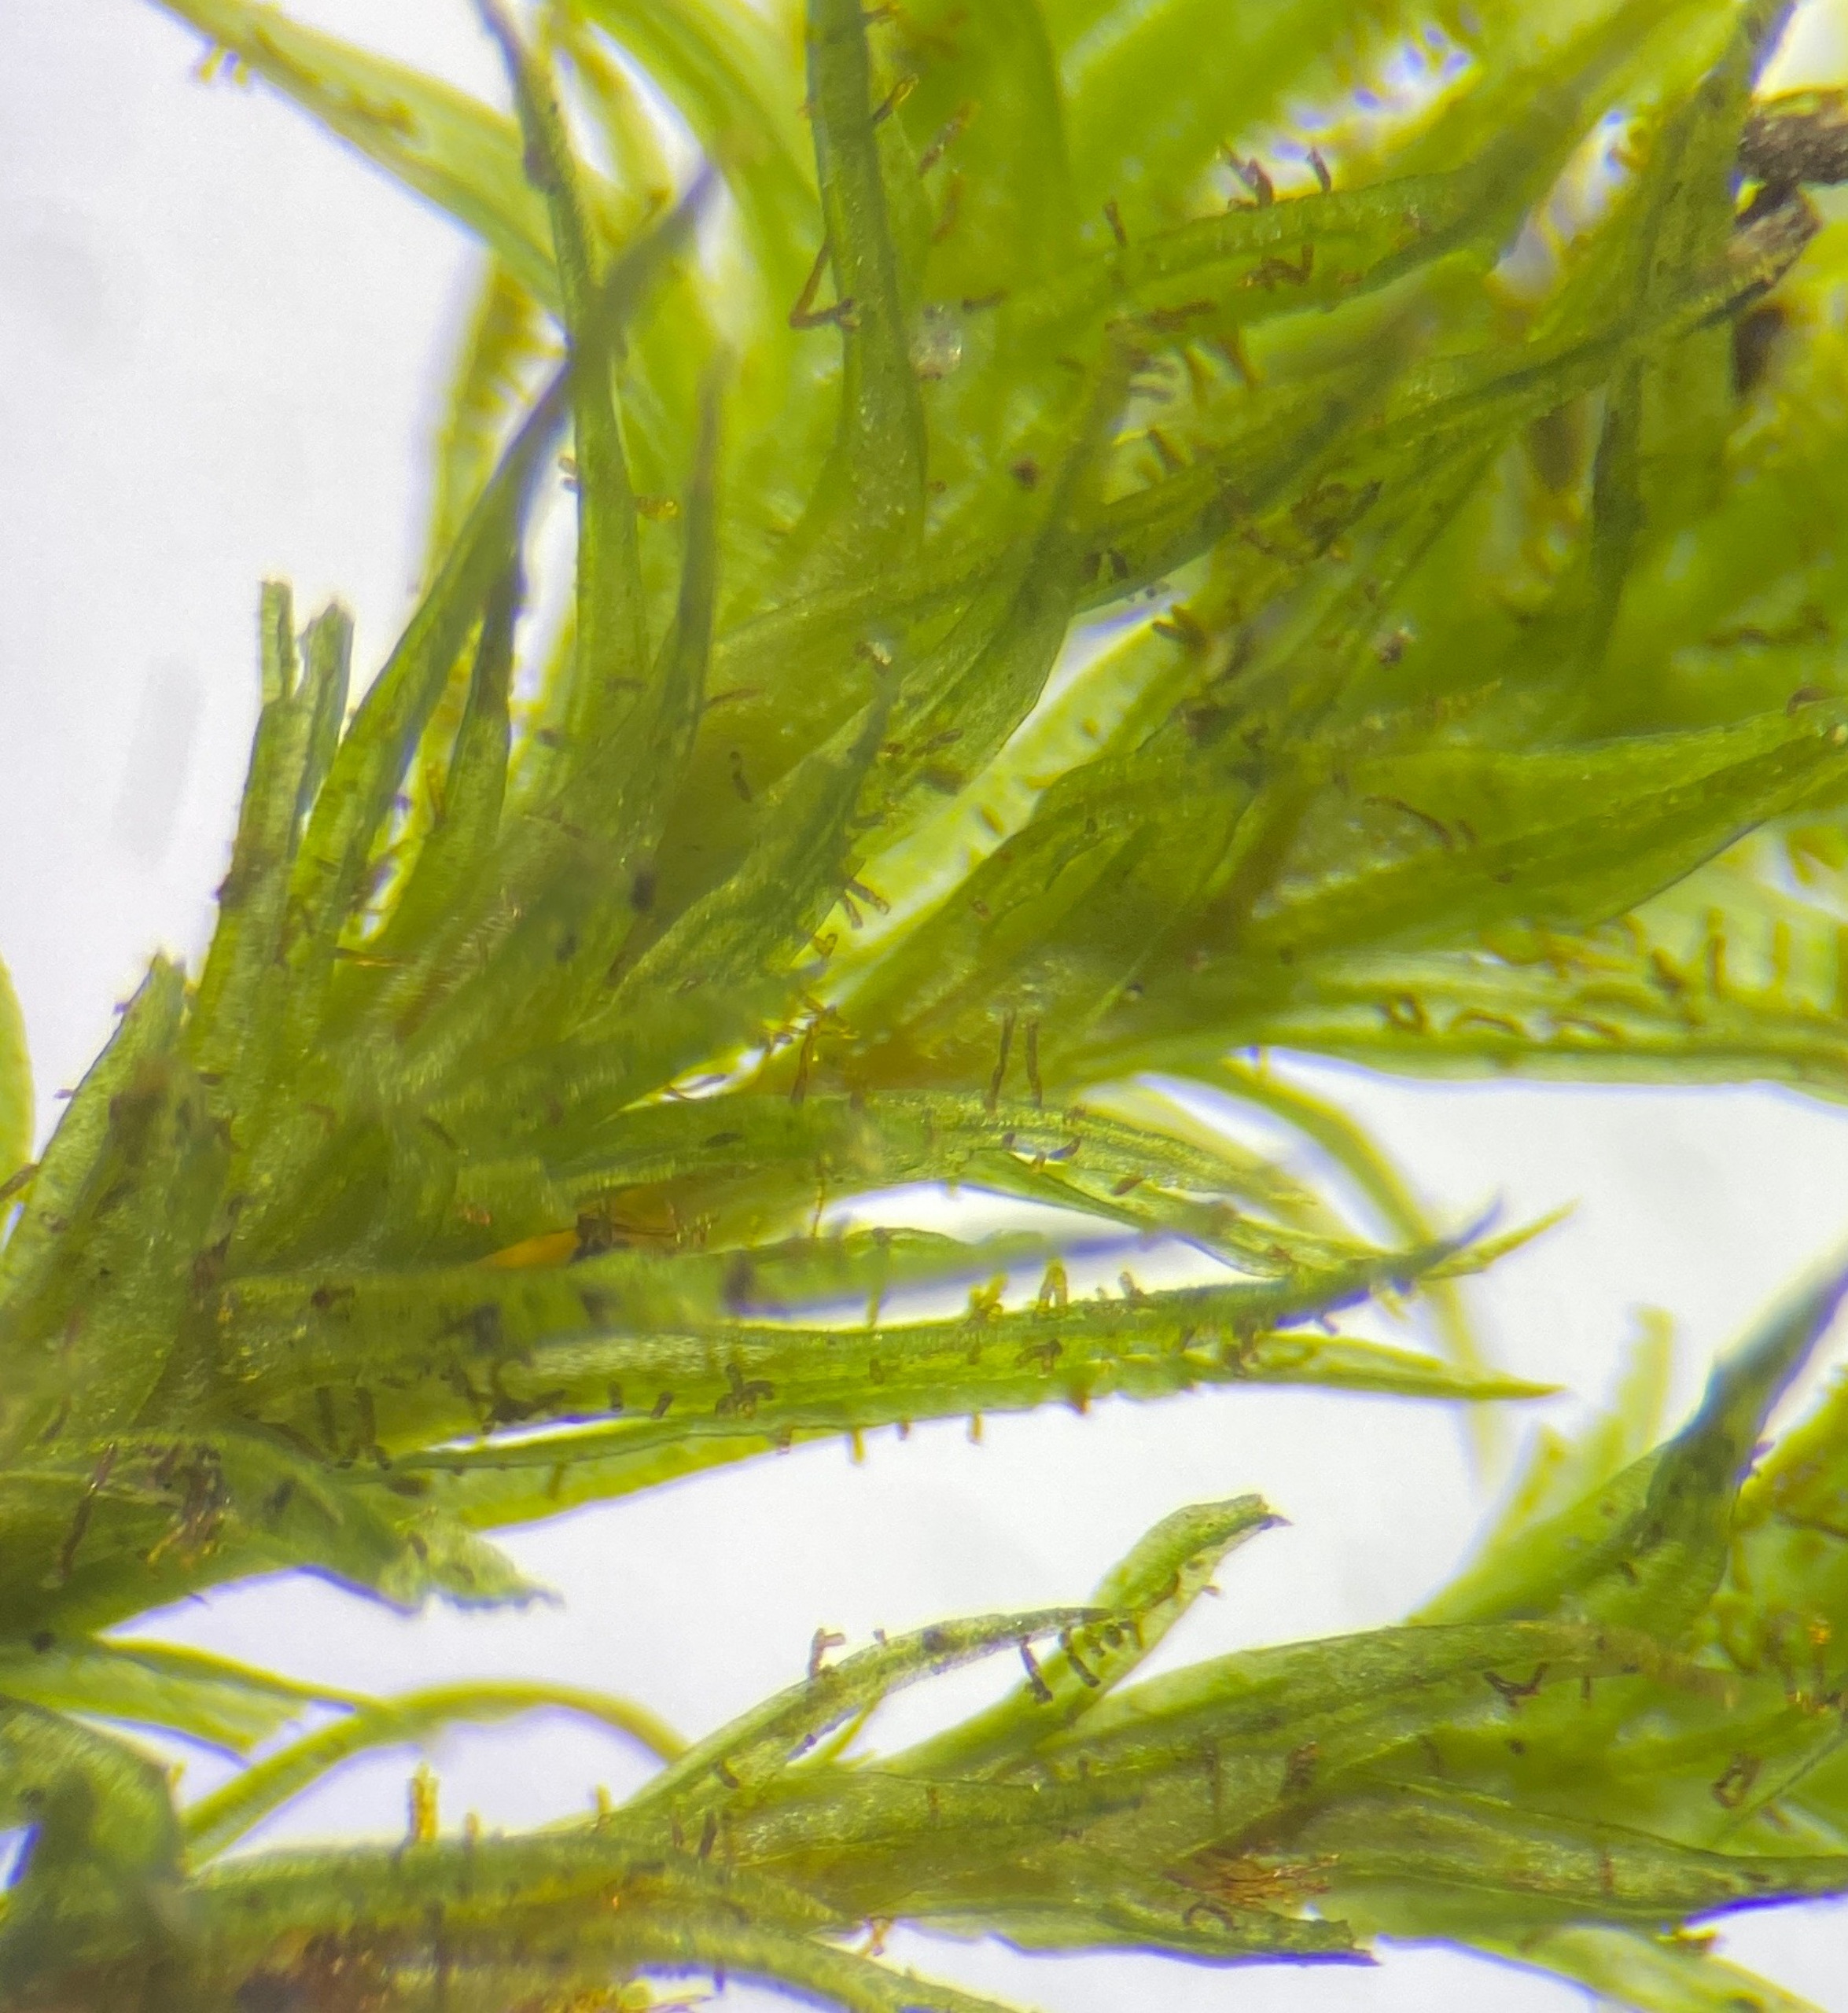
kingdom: Plantae
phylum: Bryophyta
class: Bryopsida
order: Orthotrichales
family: Orthotrichaceae
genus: Pulvigera
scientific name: Pulvigera lyellii
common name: Stor furehætte
